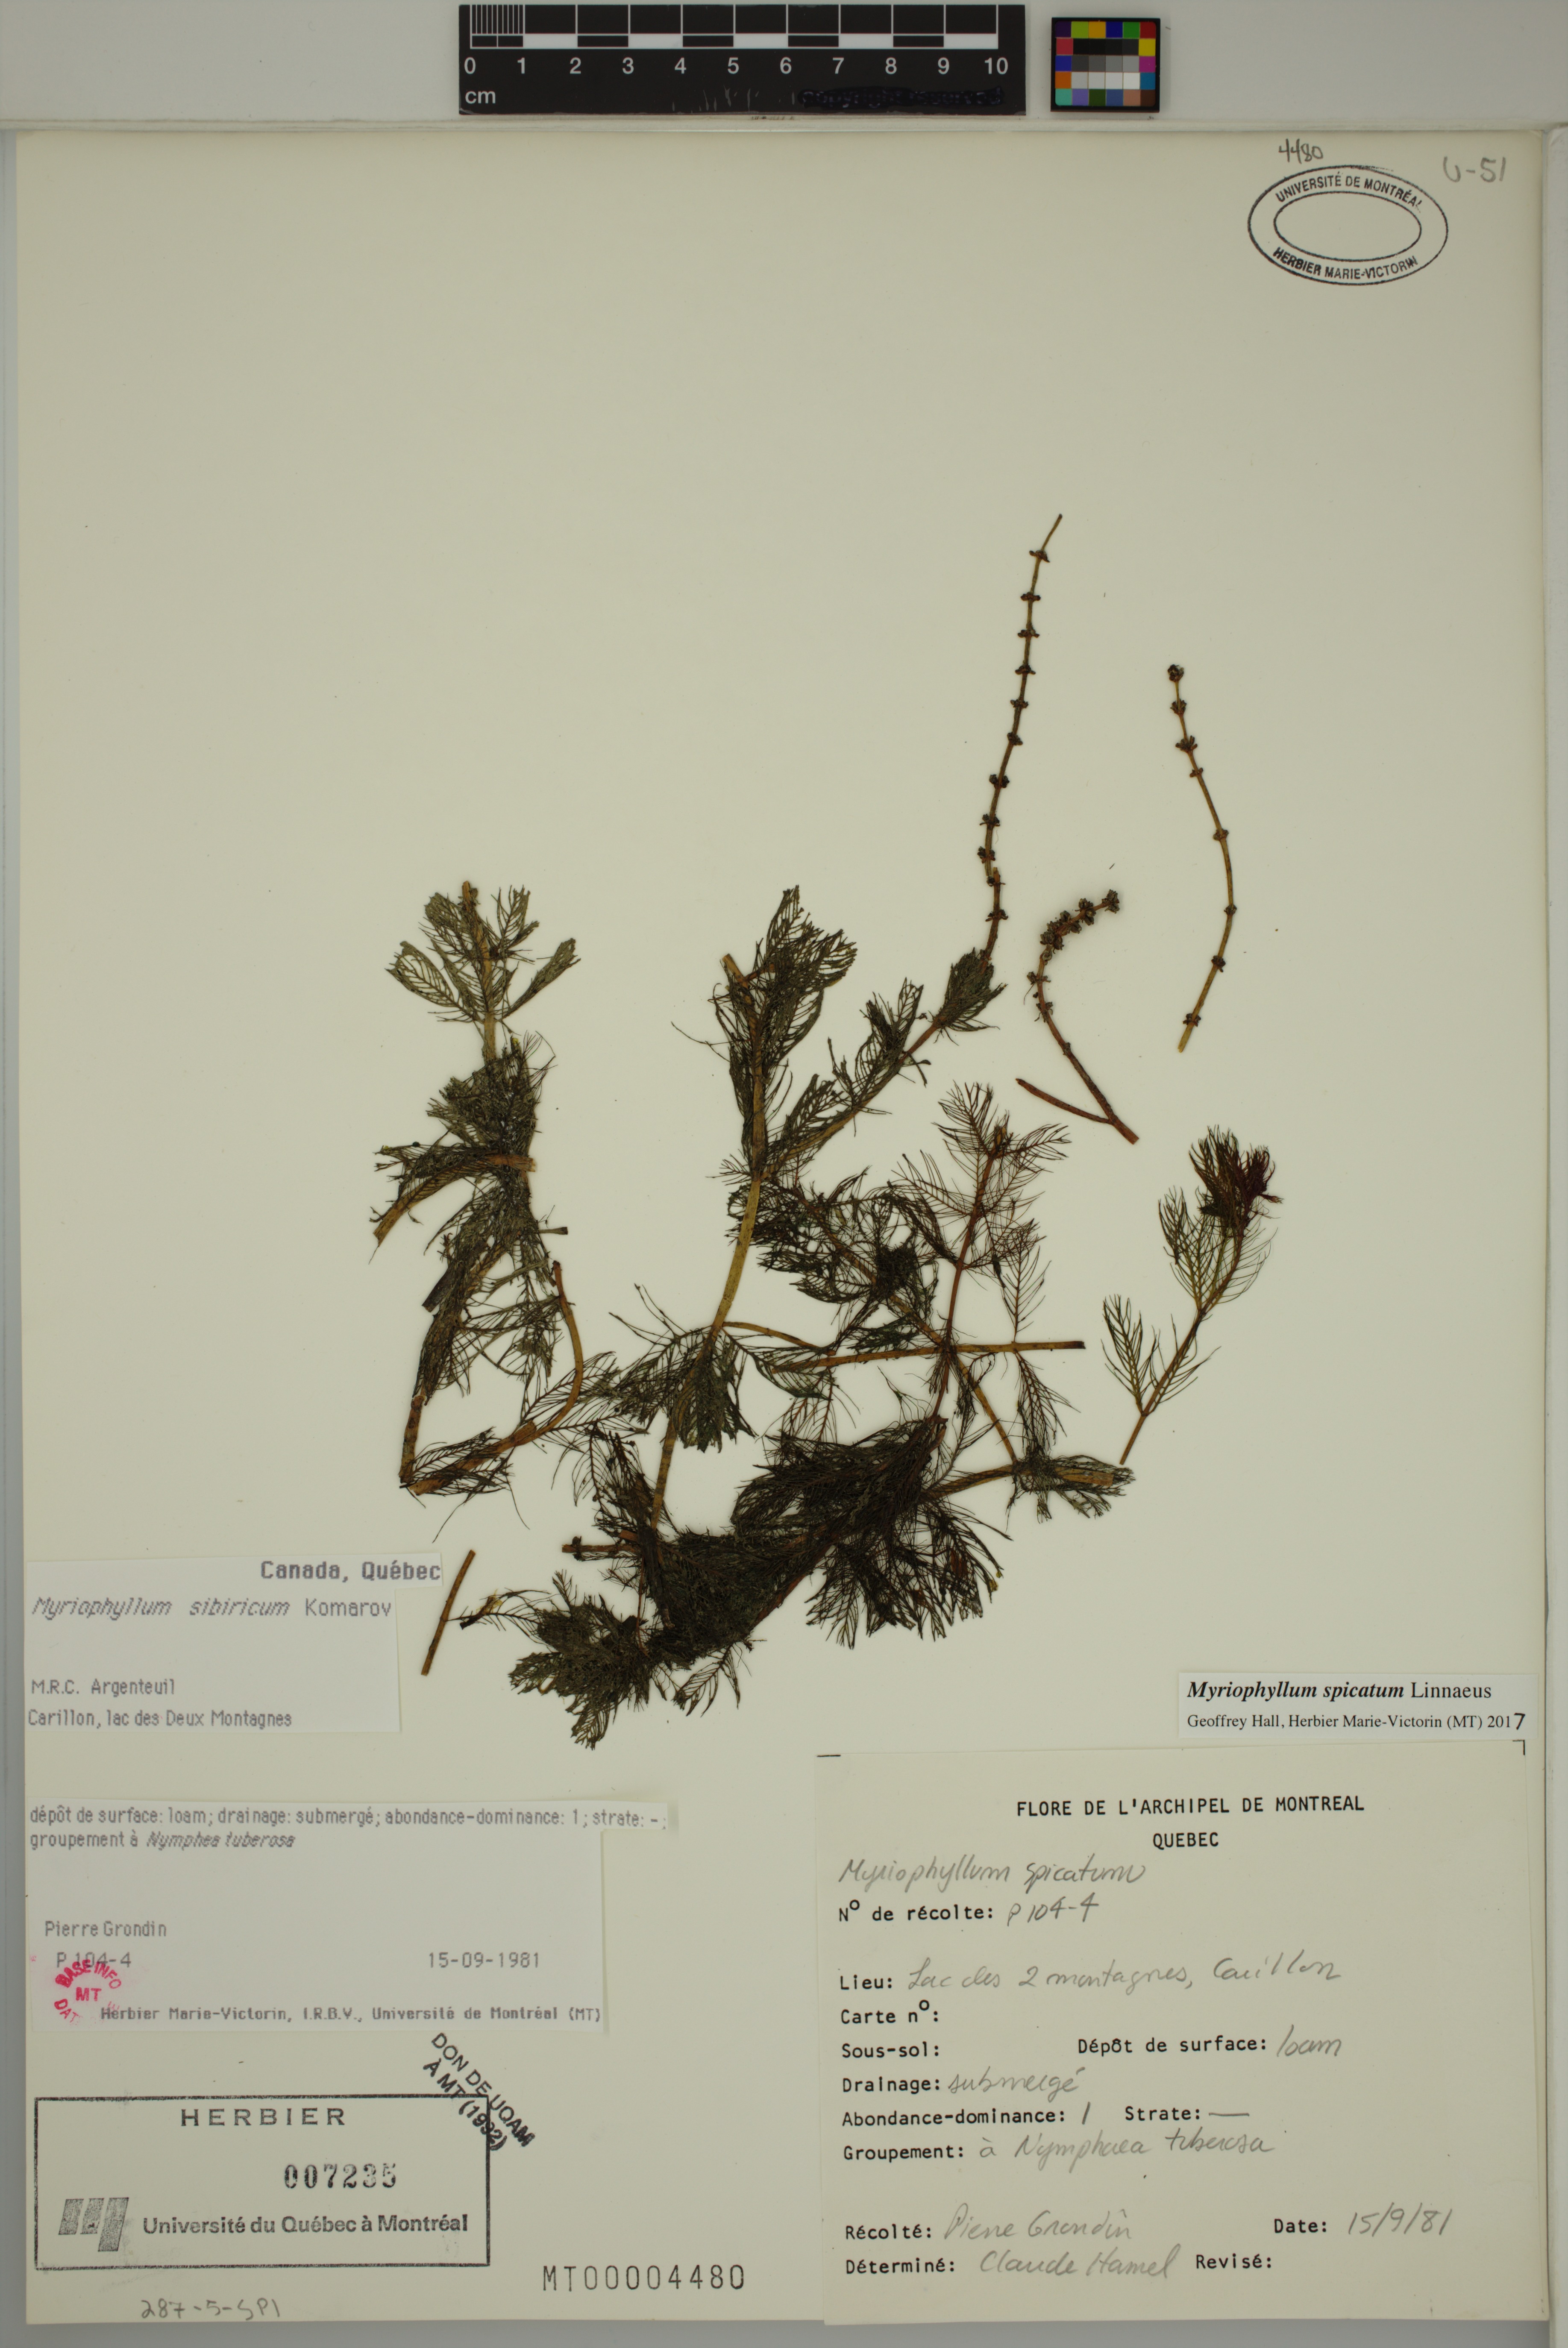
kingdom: Plantae
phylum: Tracheophyta
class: Magnoliopsida
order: Saxifragales
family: Haloragaceae
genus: Myriophyllum
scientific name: Myriophyllum spicatum
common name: Spiked water-milfoil
